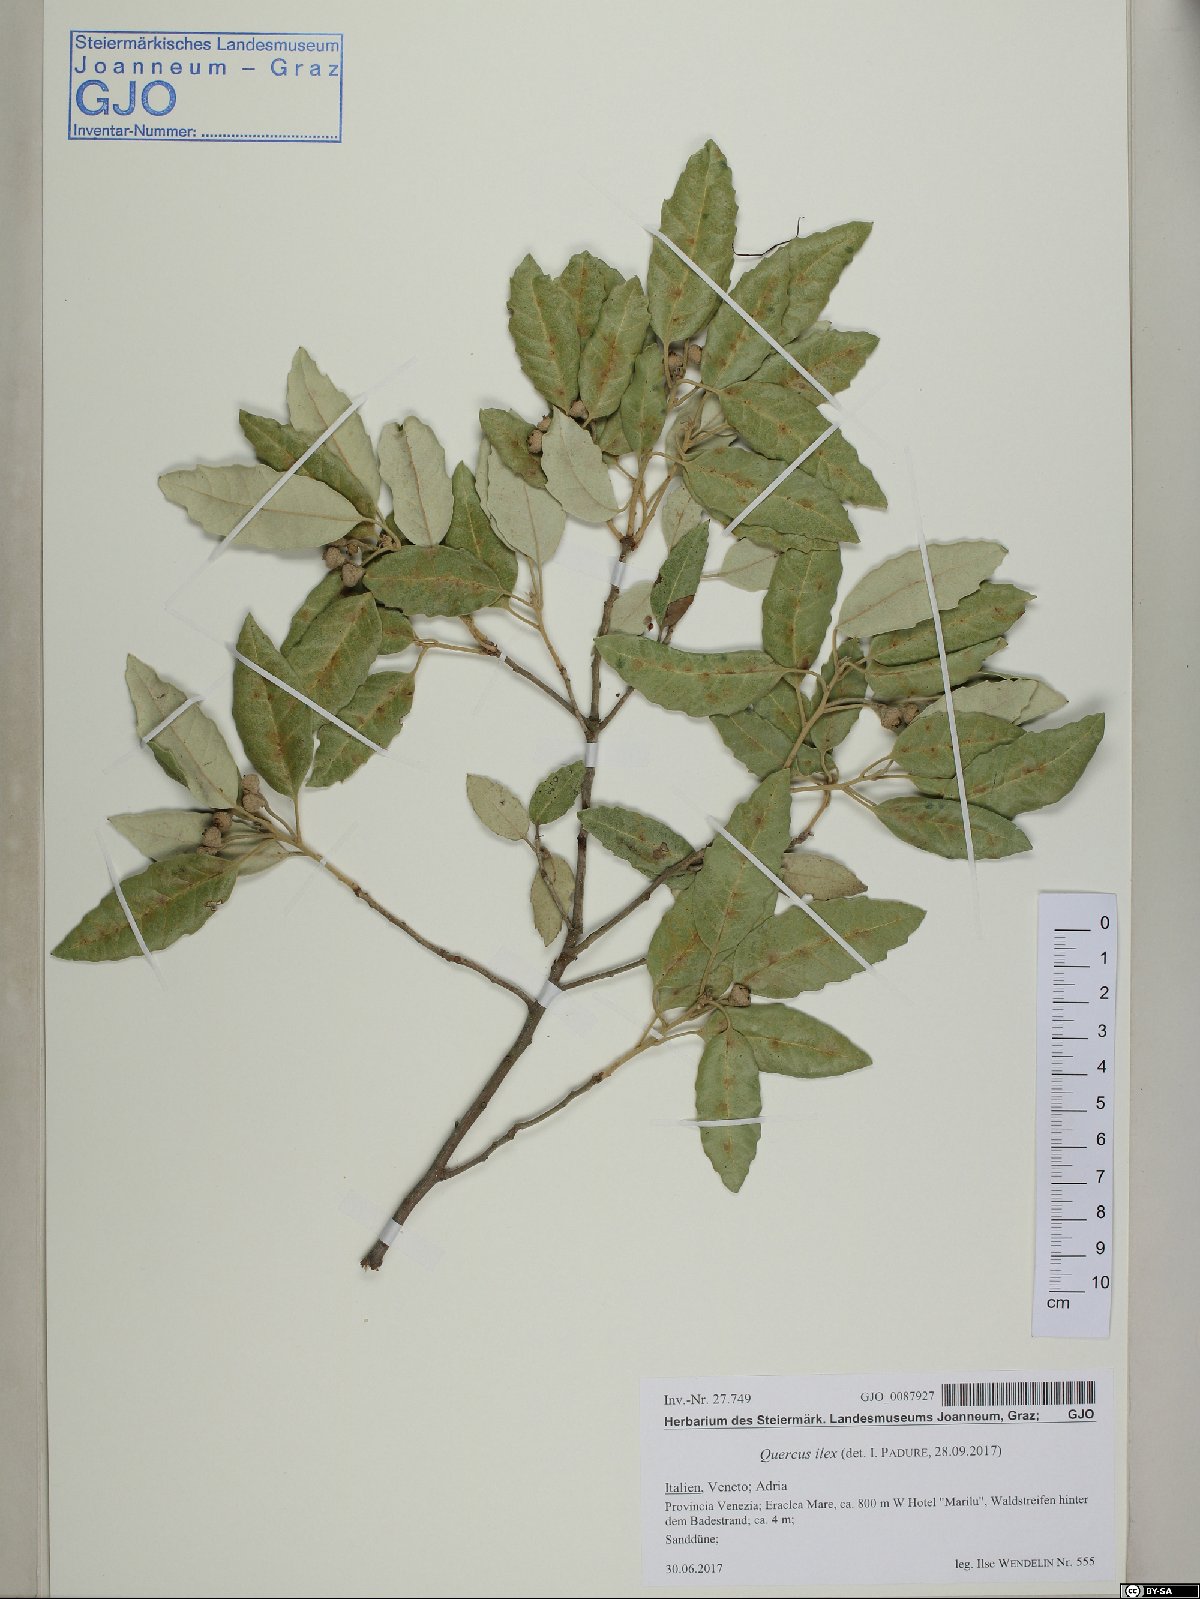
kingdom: Plantae
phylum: Tracheophyta
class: Magnoliopsida
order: Fagales
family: Fagaceae
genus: Quercus
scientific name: Quercus ilex
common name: Evergreen oak
